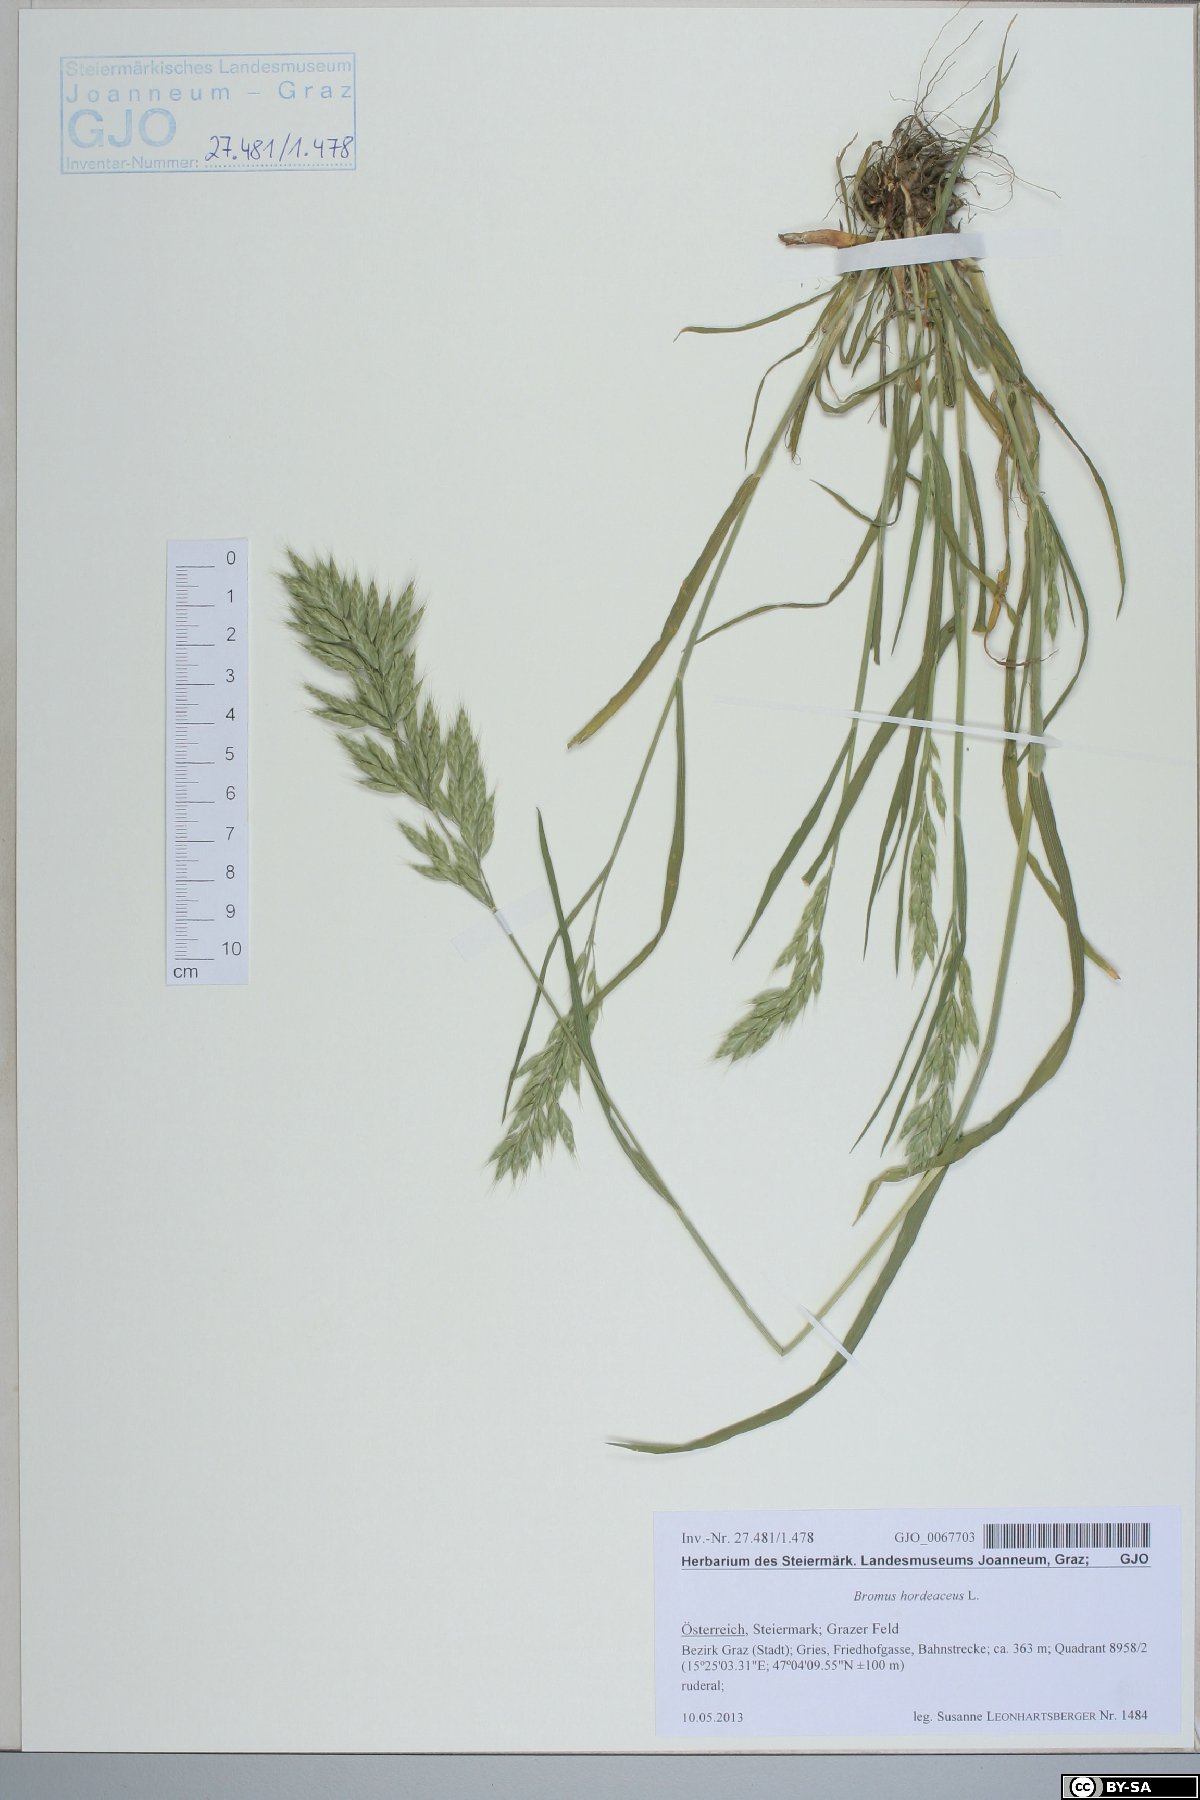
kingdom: Plantae
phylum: Tracheophyta
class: Liliopsida
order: Poales
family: Poaceae
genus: Bromus
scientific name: Bromus hordeaceus
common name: Soft brome
